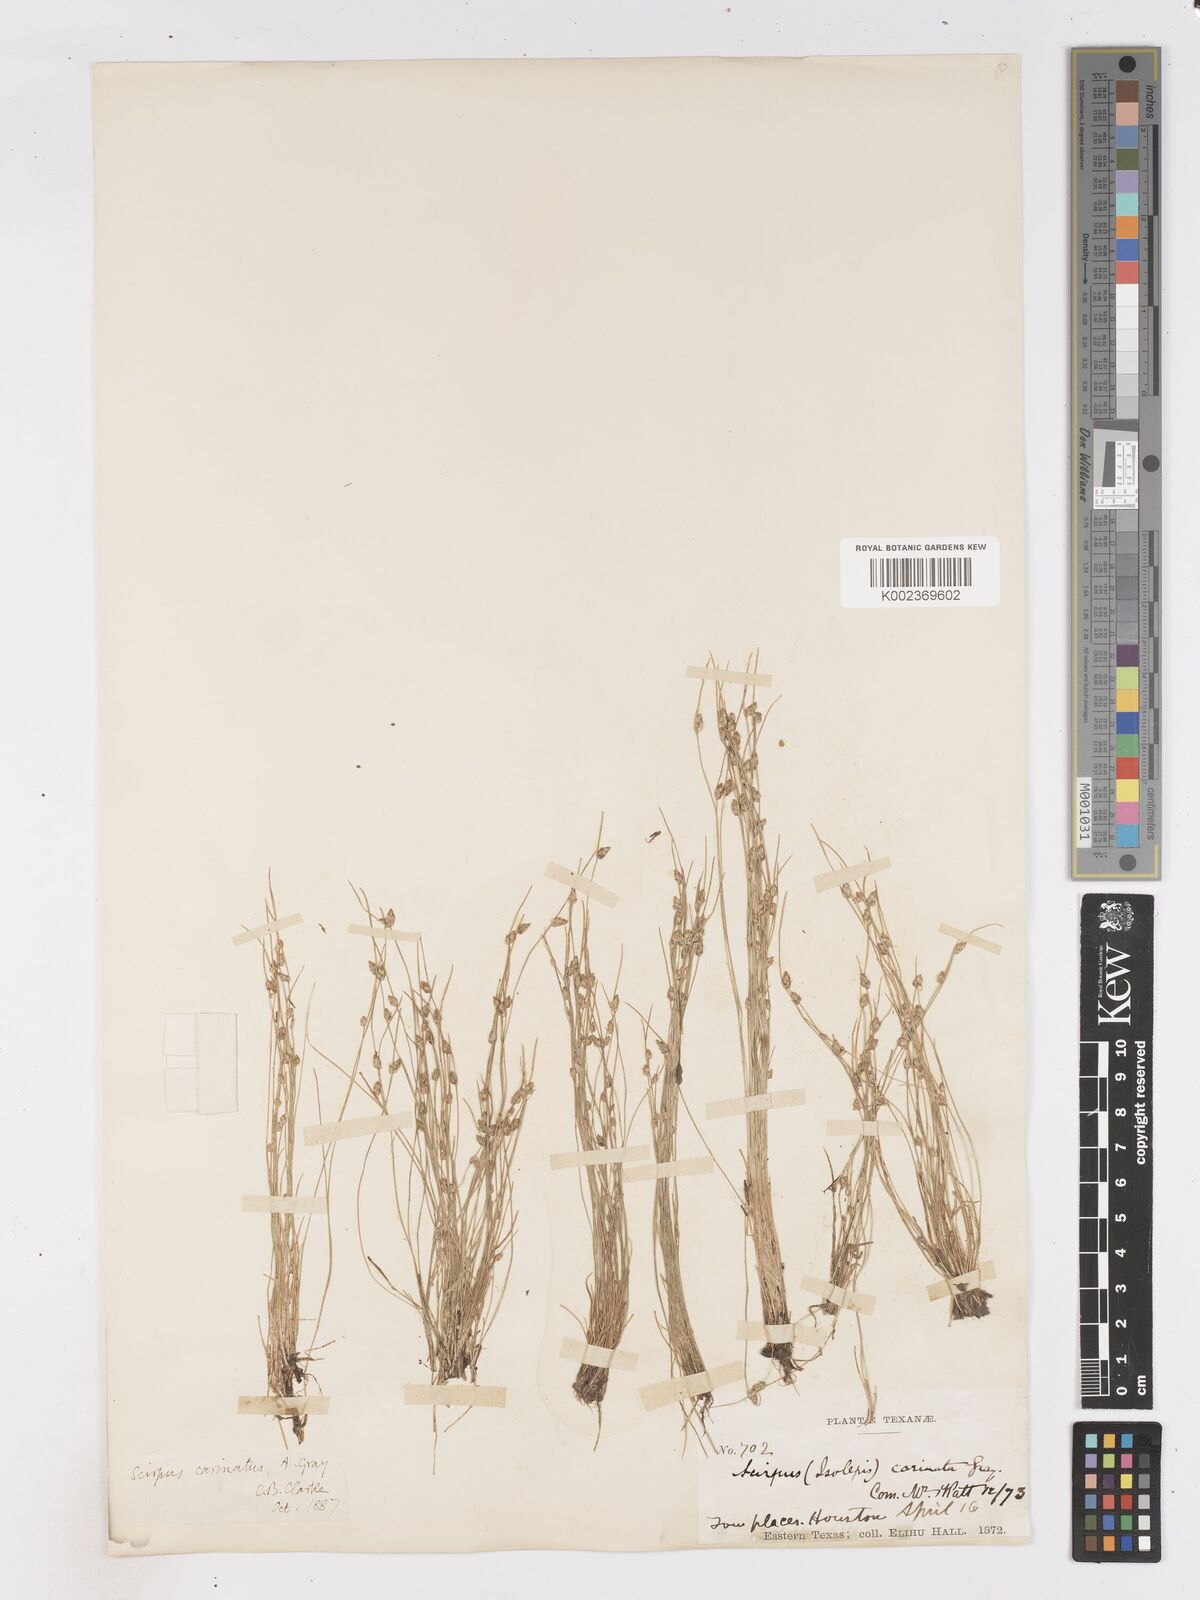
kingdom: Plantae
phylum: Tracheophyta
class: Liliopsida
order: Poales
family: Cyperaceae
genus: Isolepis
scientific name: Isolepis carinata
